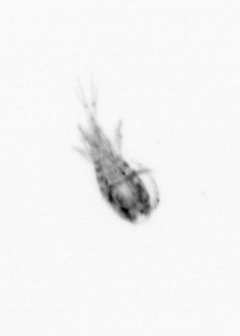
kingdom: Animalia
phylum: Arthropoda
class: Copepoda
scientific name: Copepoda
